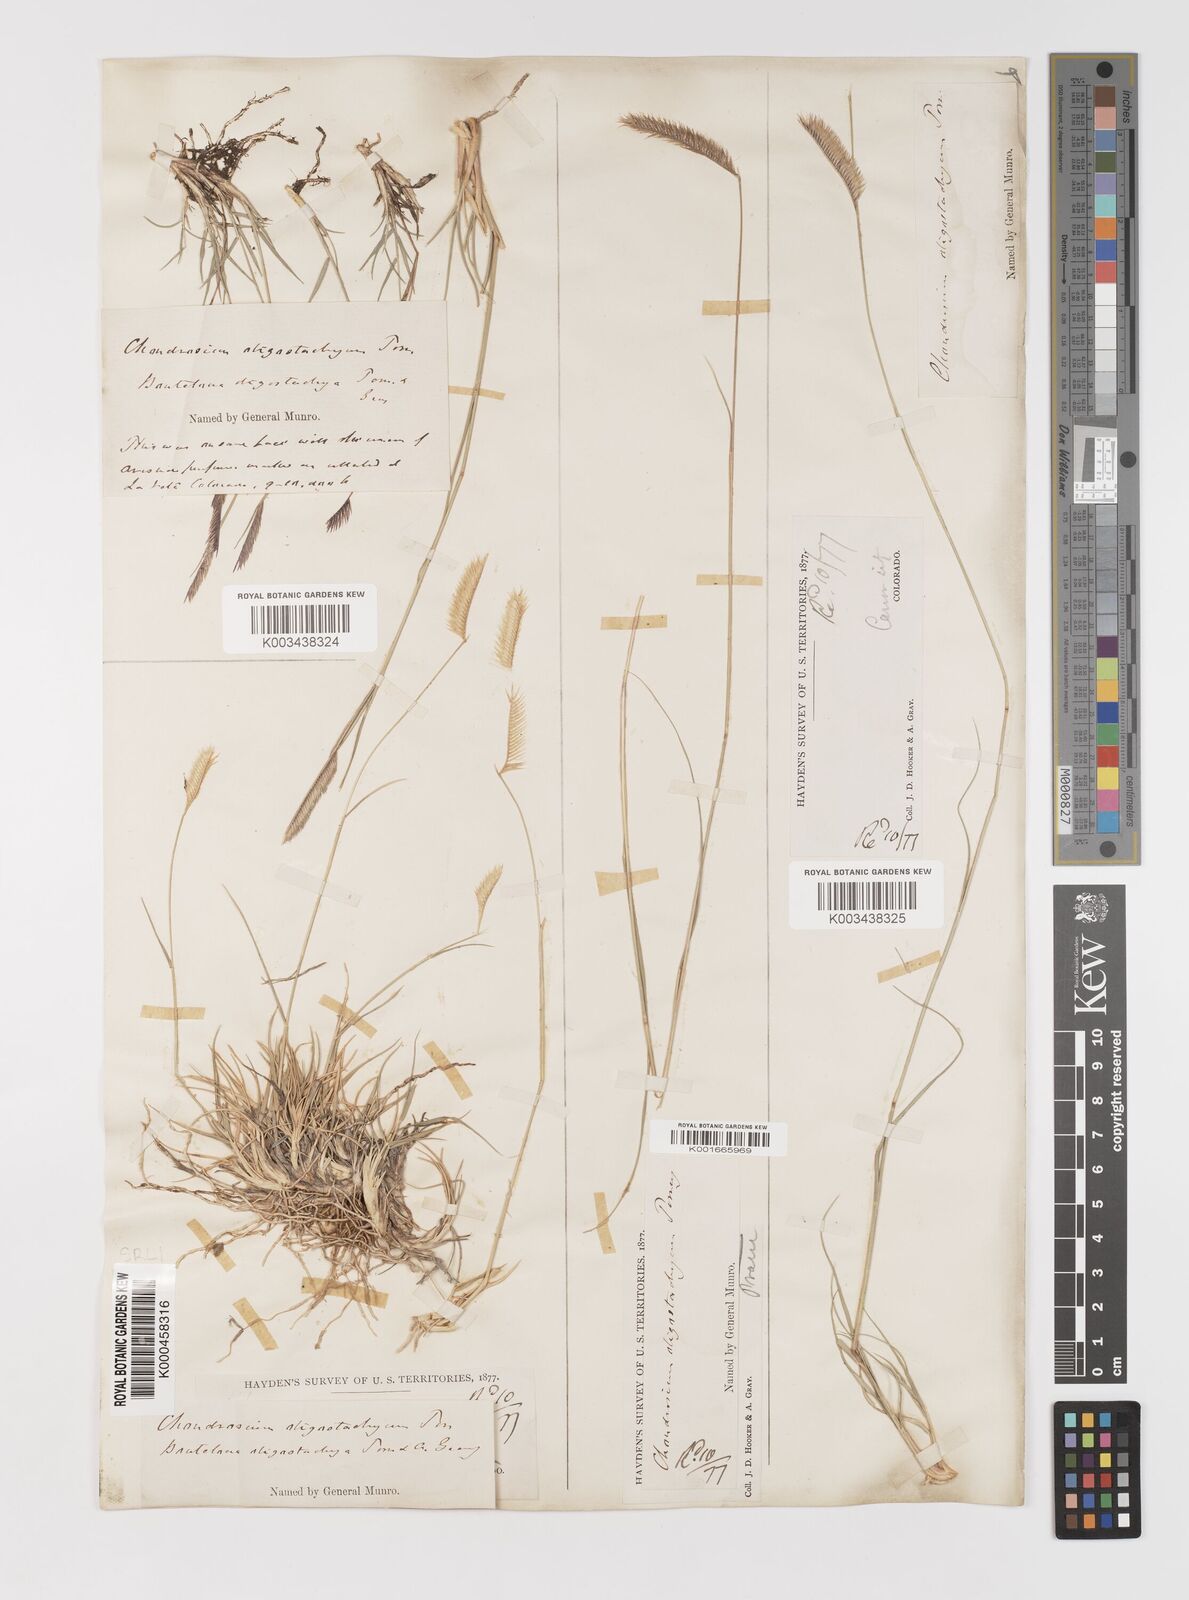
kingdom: Plantae
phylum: Tracheophyta
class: Liliopsida
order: Poales
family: Poaceae
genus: Bouteloua
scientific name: Bouteloua
